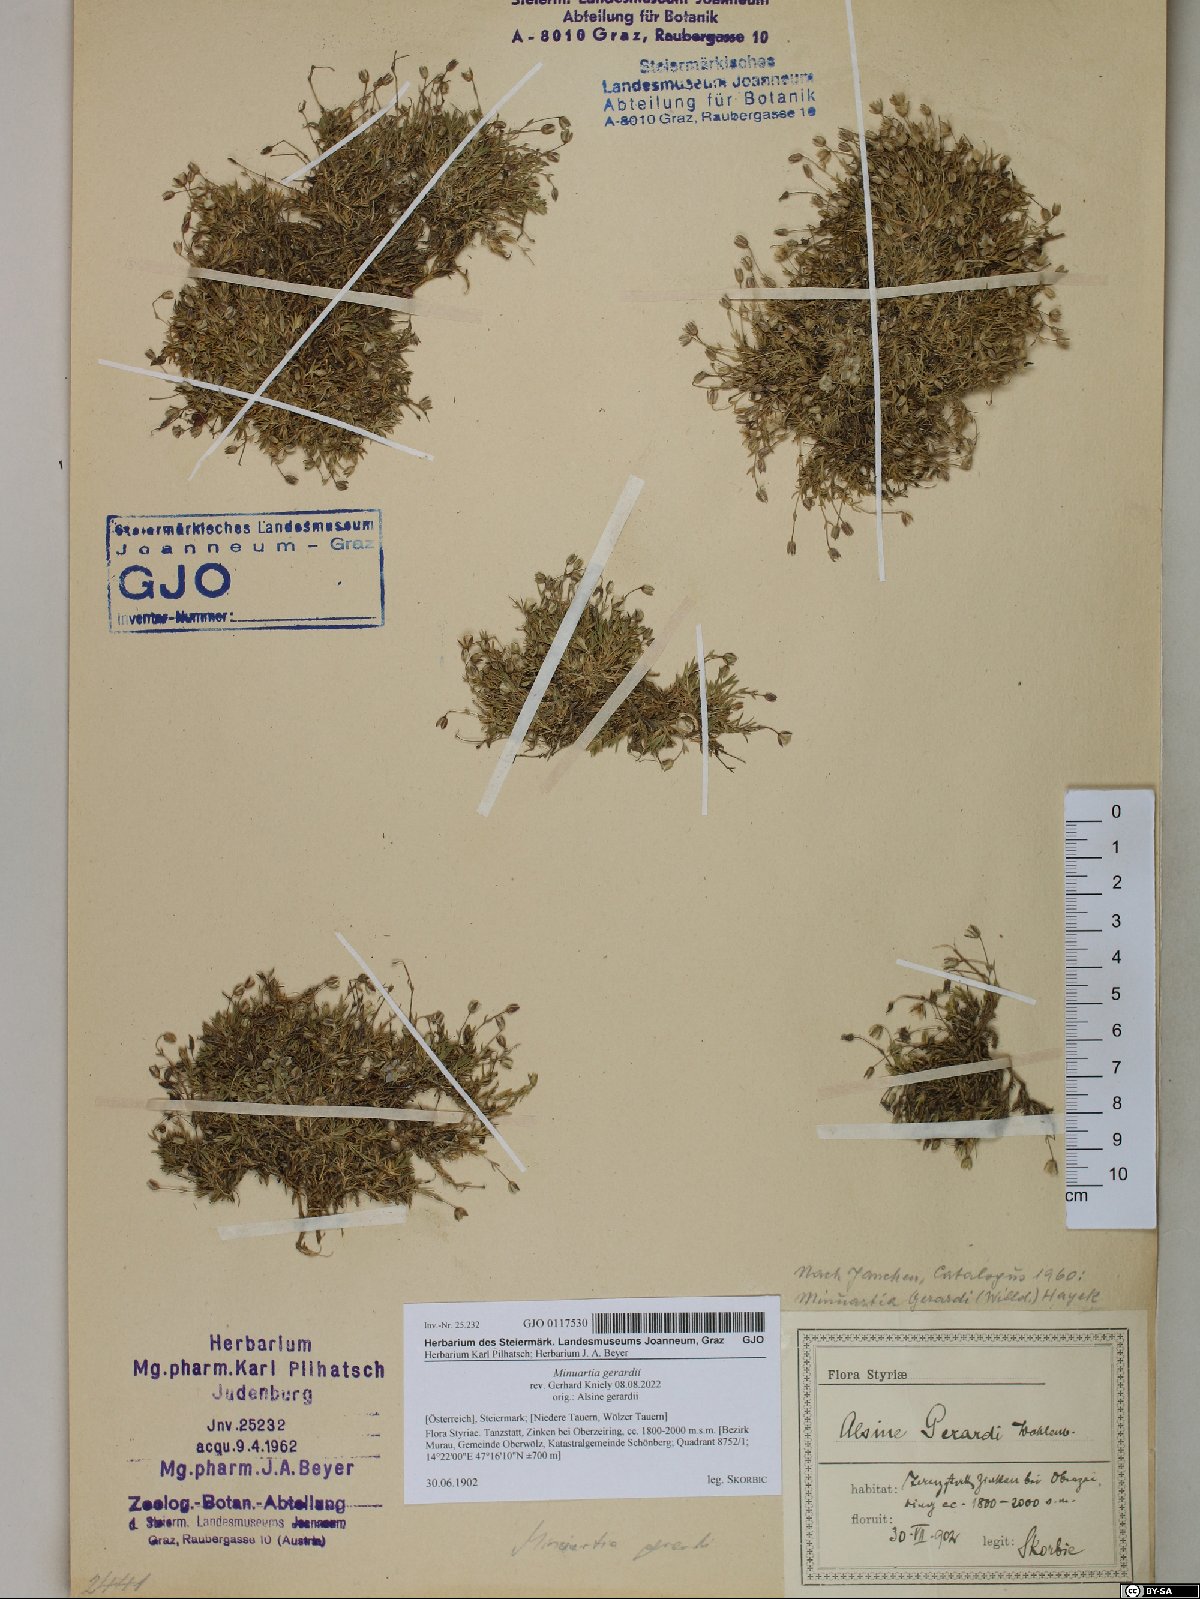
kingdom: Plantae
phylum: Tracheophyta
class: Magnoliopsida
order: Caryophyllales
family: Caryophyllaceae
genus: Sabulina
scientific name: Sabulina verna
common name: Spring sandwort
